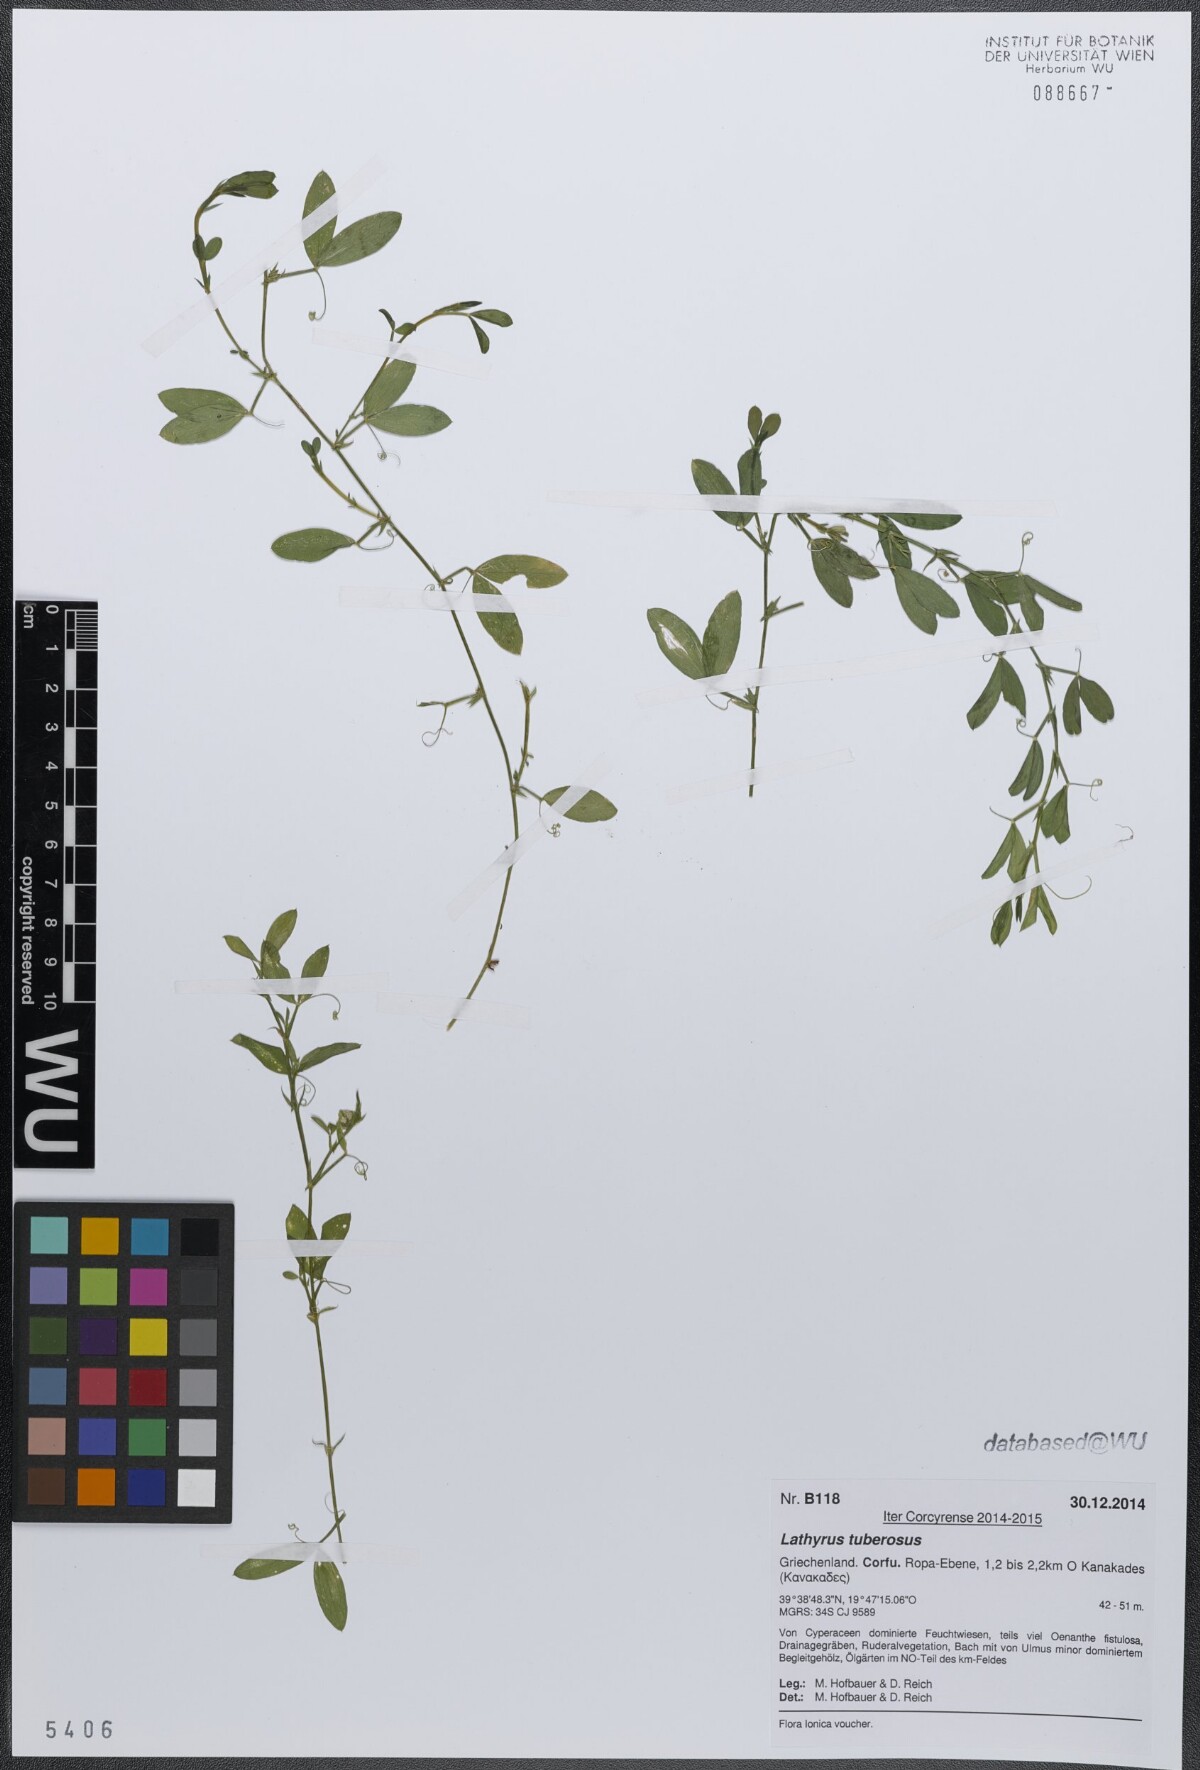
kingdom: Plantae
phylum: Tracheophyta
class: Magnoliopsida
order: Fabales
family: Fabaceae
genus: Lathyrus
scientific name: Lathyrus tuberosus
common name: Tuberous pea
